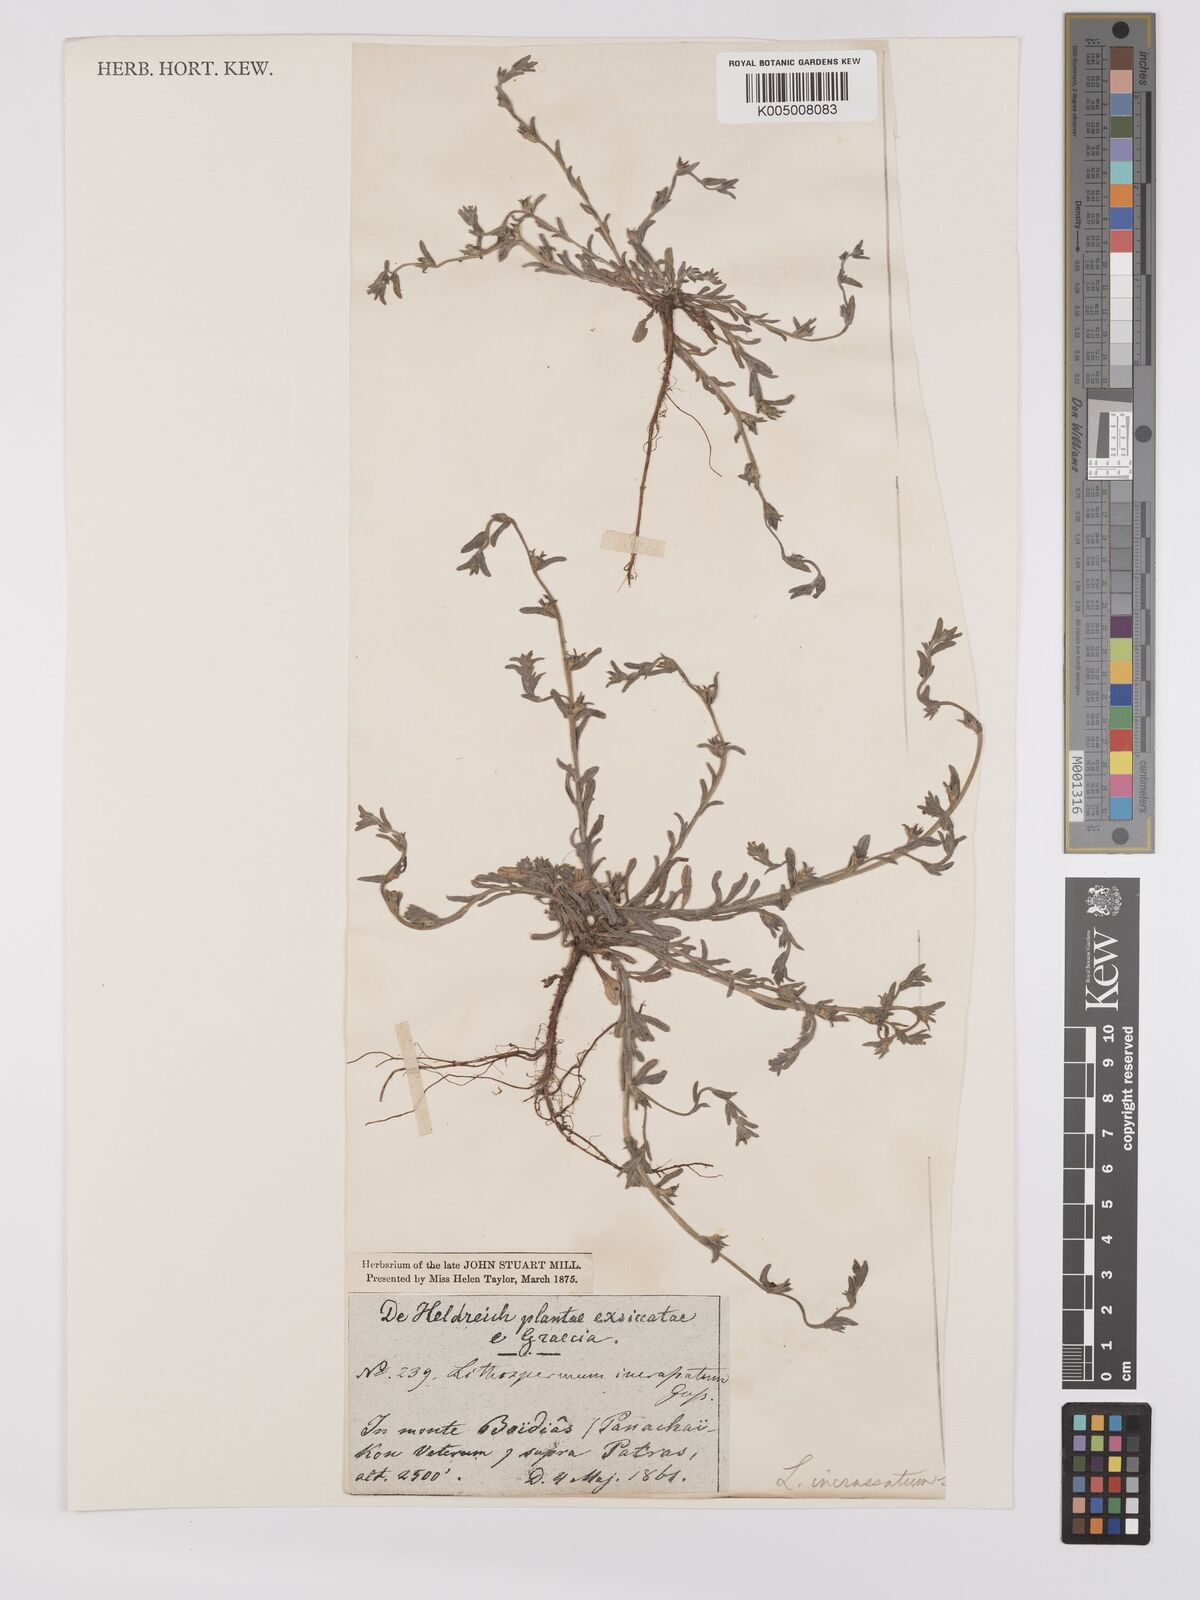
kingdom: Plantae
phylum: Tracheophyta
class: Magnoliopsida
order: Boraginales
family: Boraginaceae
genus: Buglossoides
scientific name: Buglossoides incrassata
